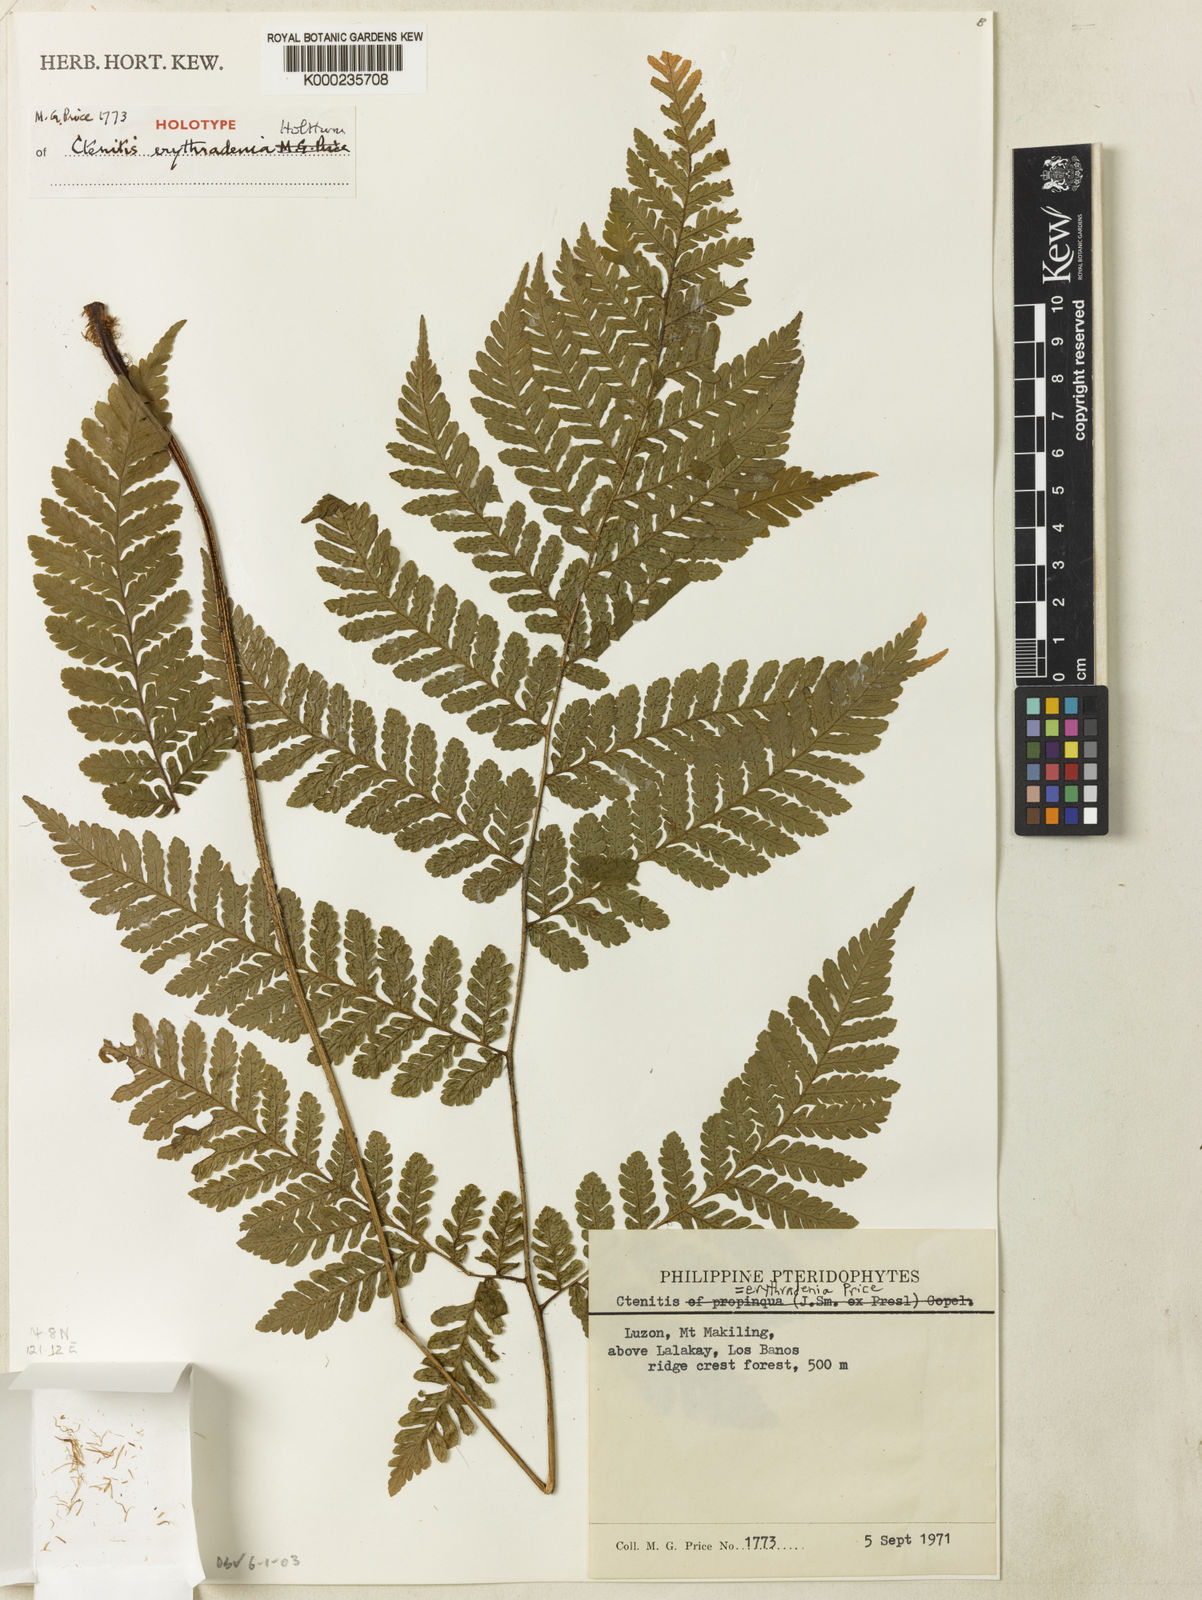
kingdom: Plantae
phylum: Tracheophyta
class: Polypodiopsida
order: Polypodiales
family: Dryopteridaceae
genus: Ctenitis
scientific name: Ctenitis erythradenia
